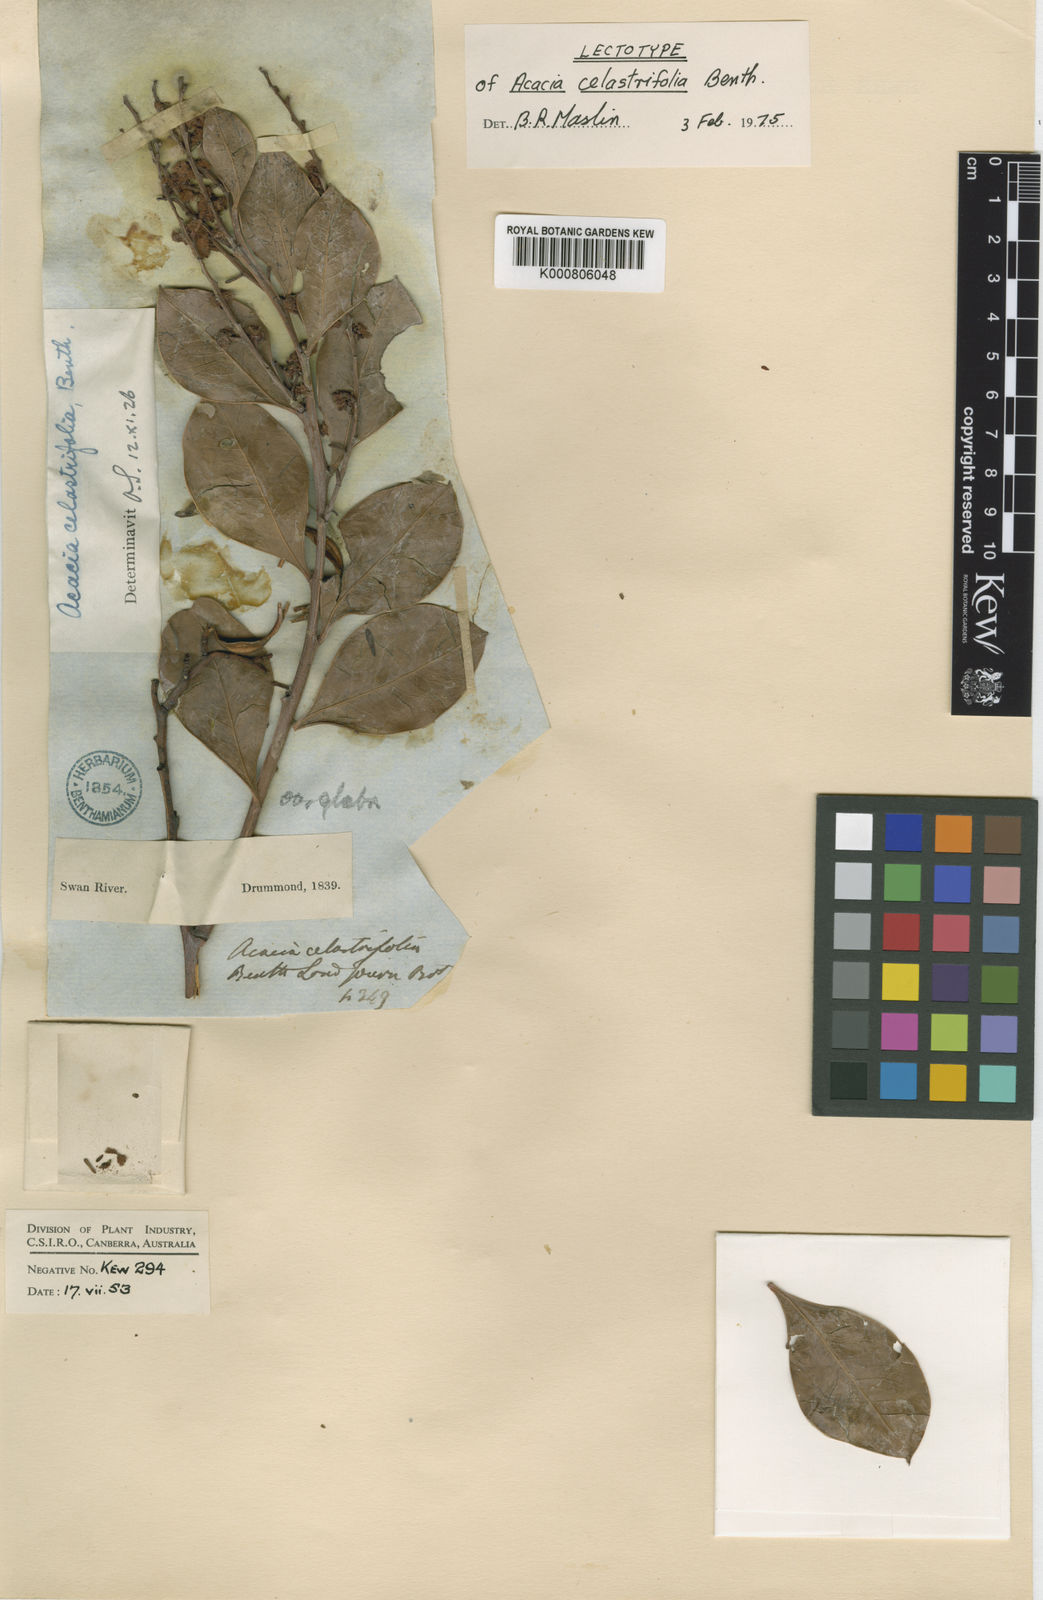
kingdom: Plantae
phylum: Tracheophyta
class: Magnoliopsida
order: Fabales
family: Fabaceae
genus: Acacia
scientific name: Acacia celastrifolia
